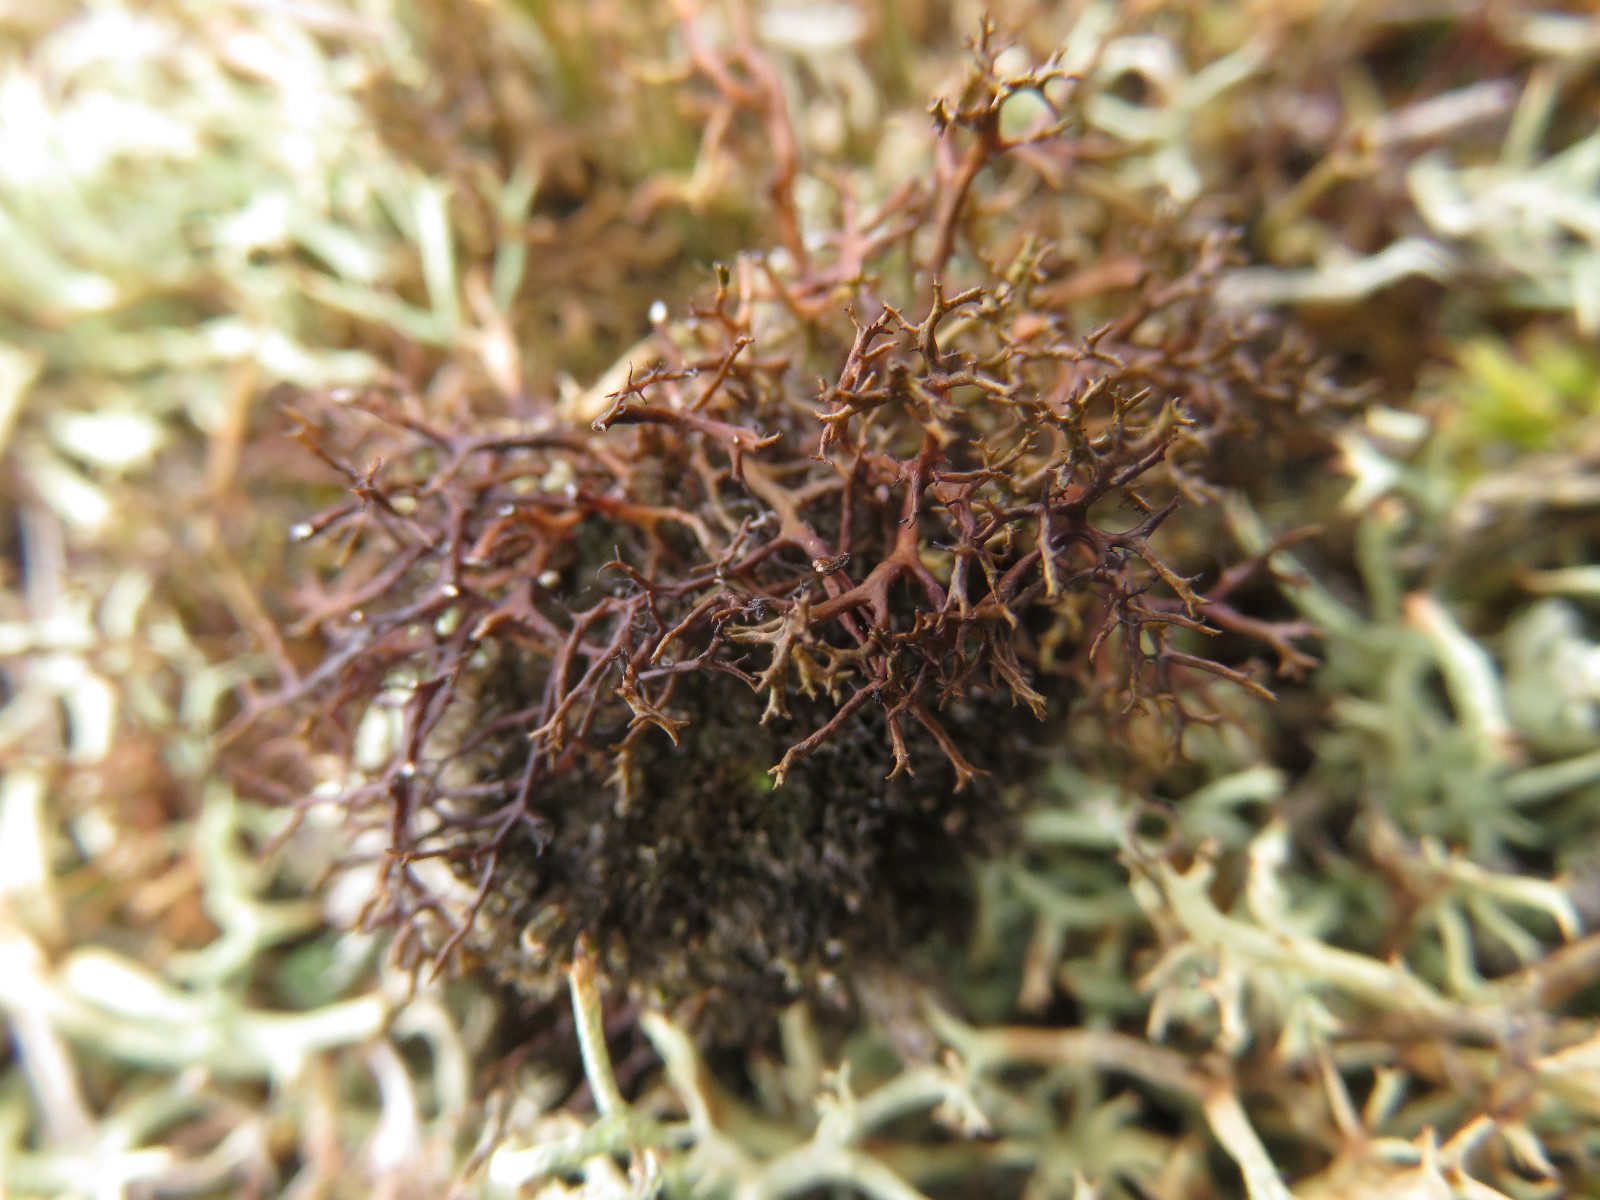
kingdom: Fungi
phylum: Ascomycota
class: Lecanoromycetes
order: Lecanorales
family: Parmeliaceae
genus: Cetraria
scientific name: Cetraria muricata
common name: tue-tjørnelav
